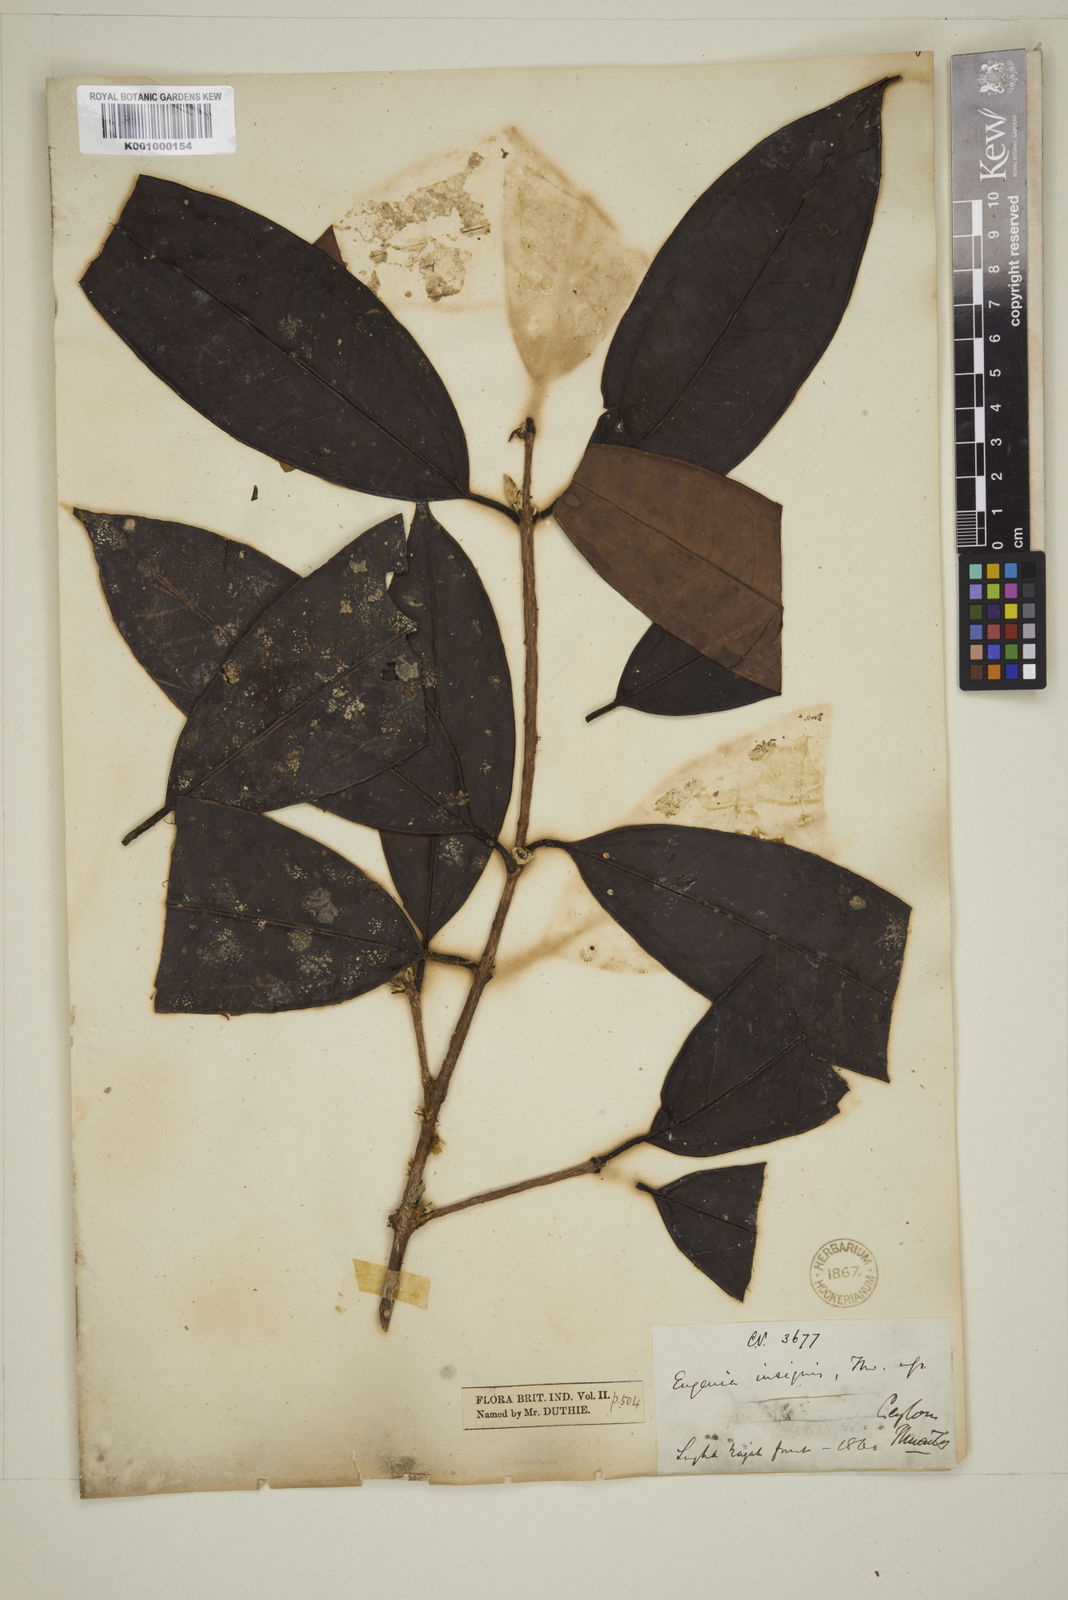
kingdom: Plantae
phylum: Tracheophyta
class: Magnoliopsida
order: Myrtales
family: Myrtaceae
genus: Eugenia
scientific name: Eugenia fulva
